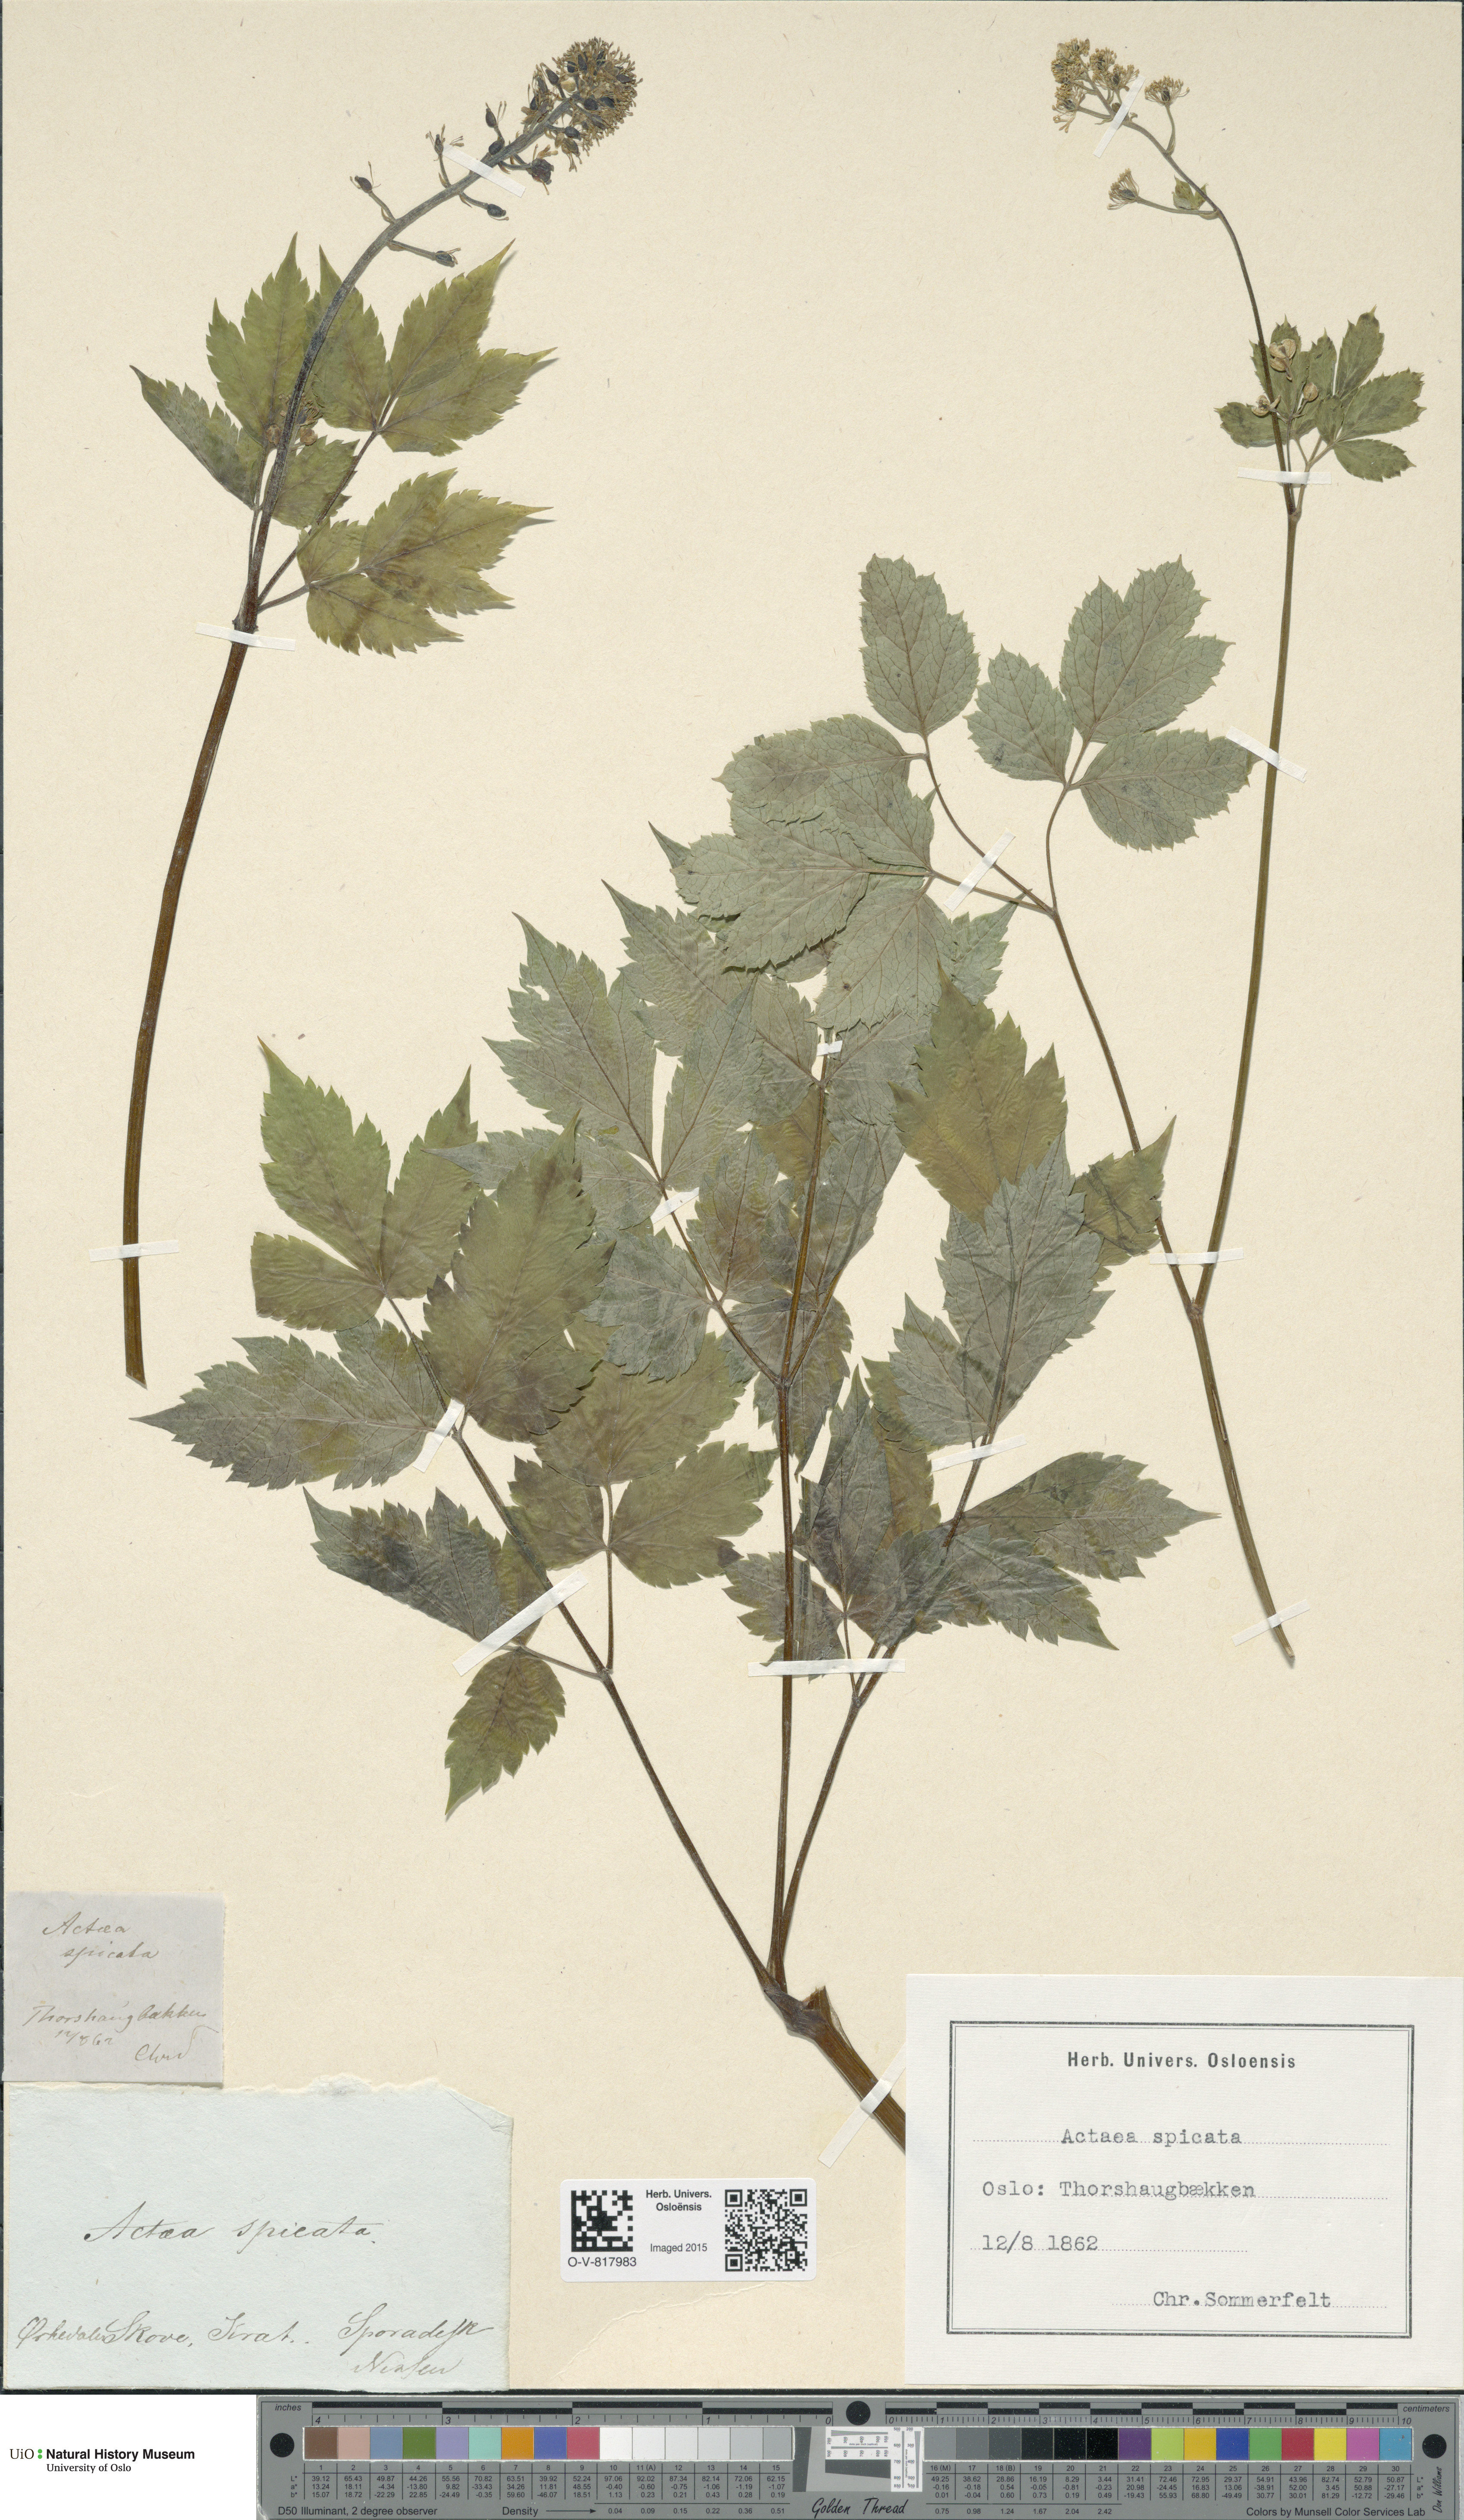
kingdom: Plantae
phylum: Tracheophyta
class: Magnoliopsida
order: Ranunculales
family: Ranunculaceae
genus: Actaea
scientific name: Actaea spicata
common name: Baneberry
